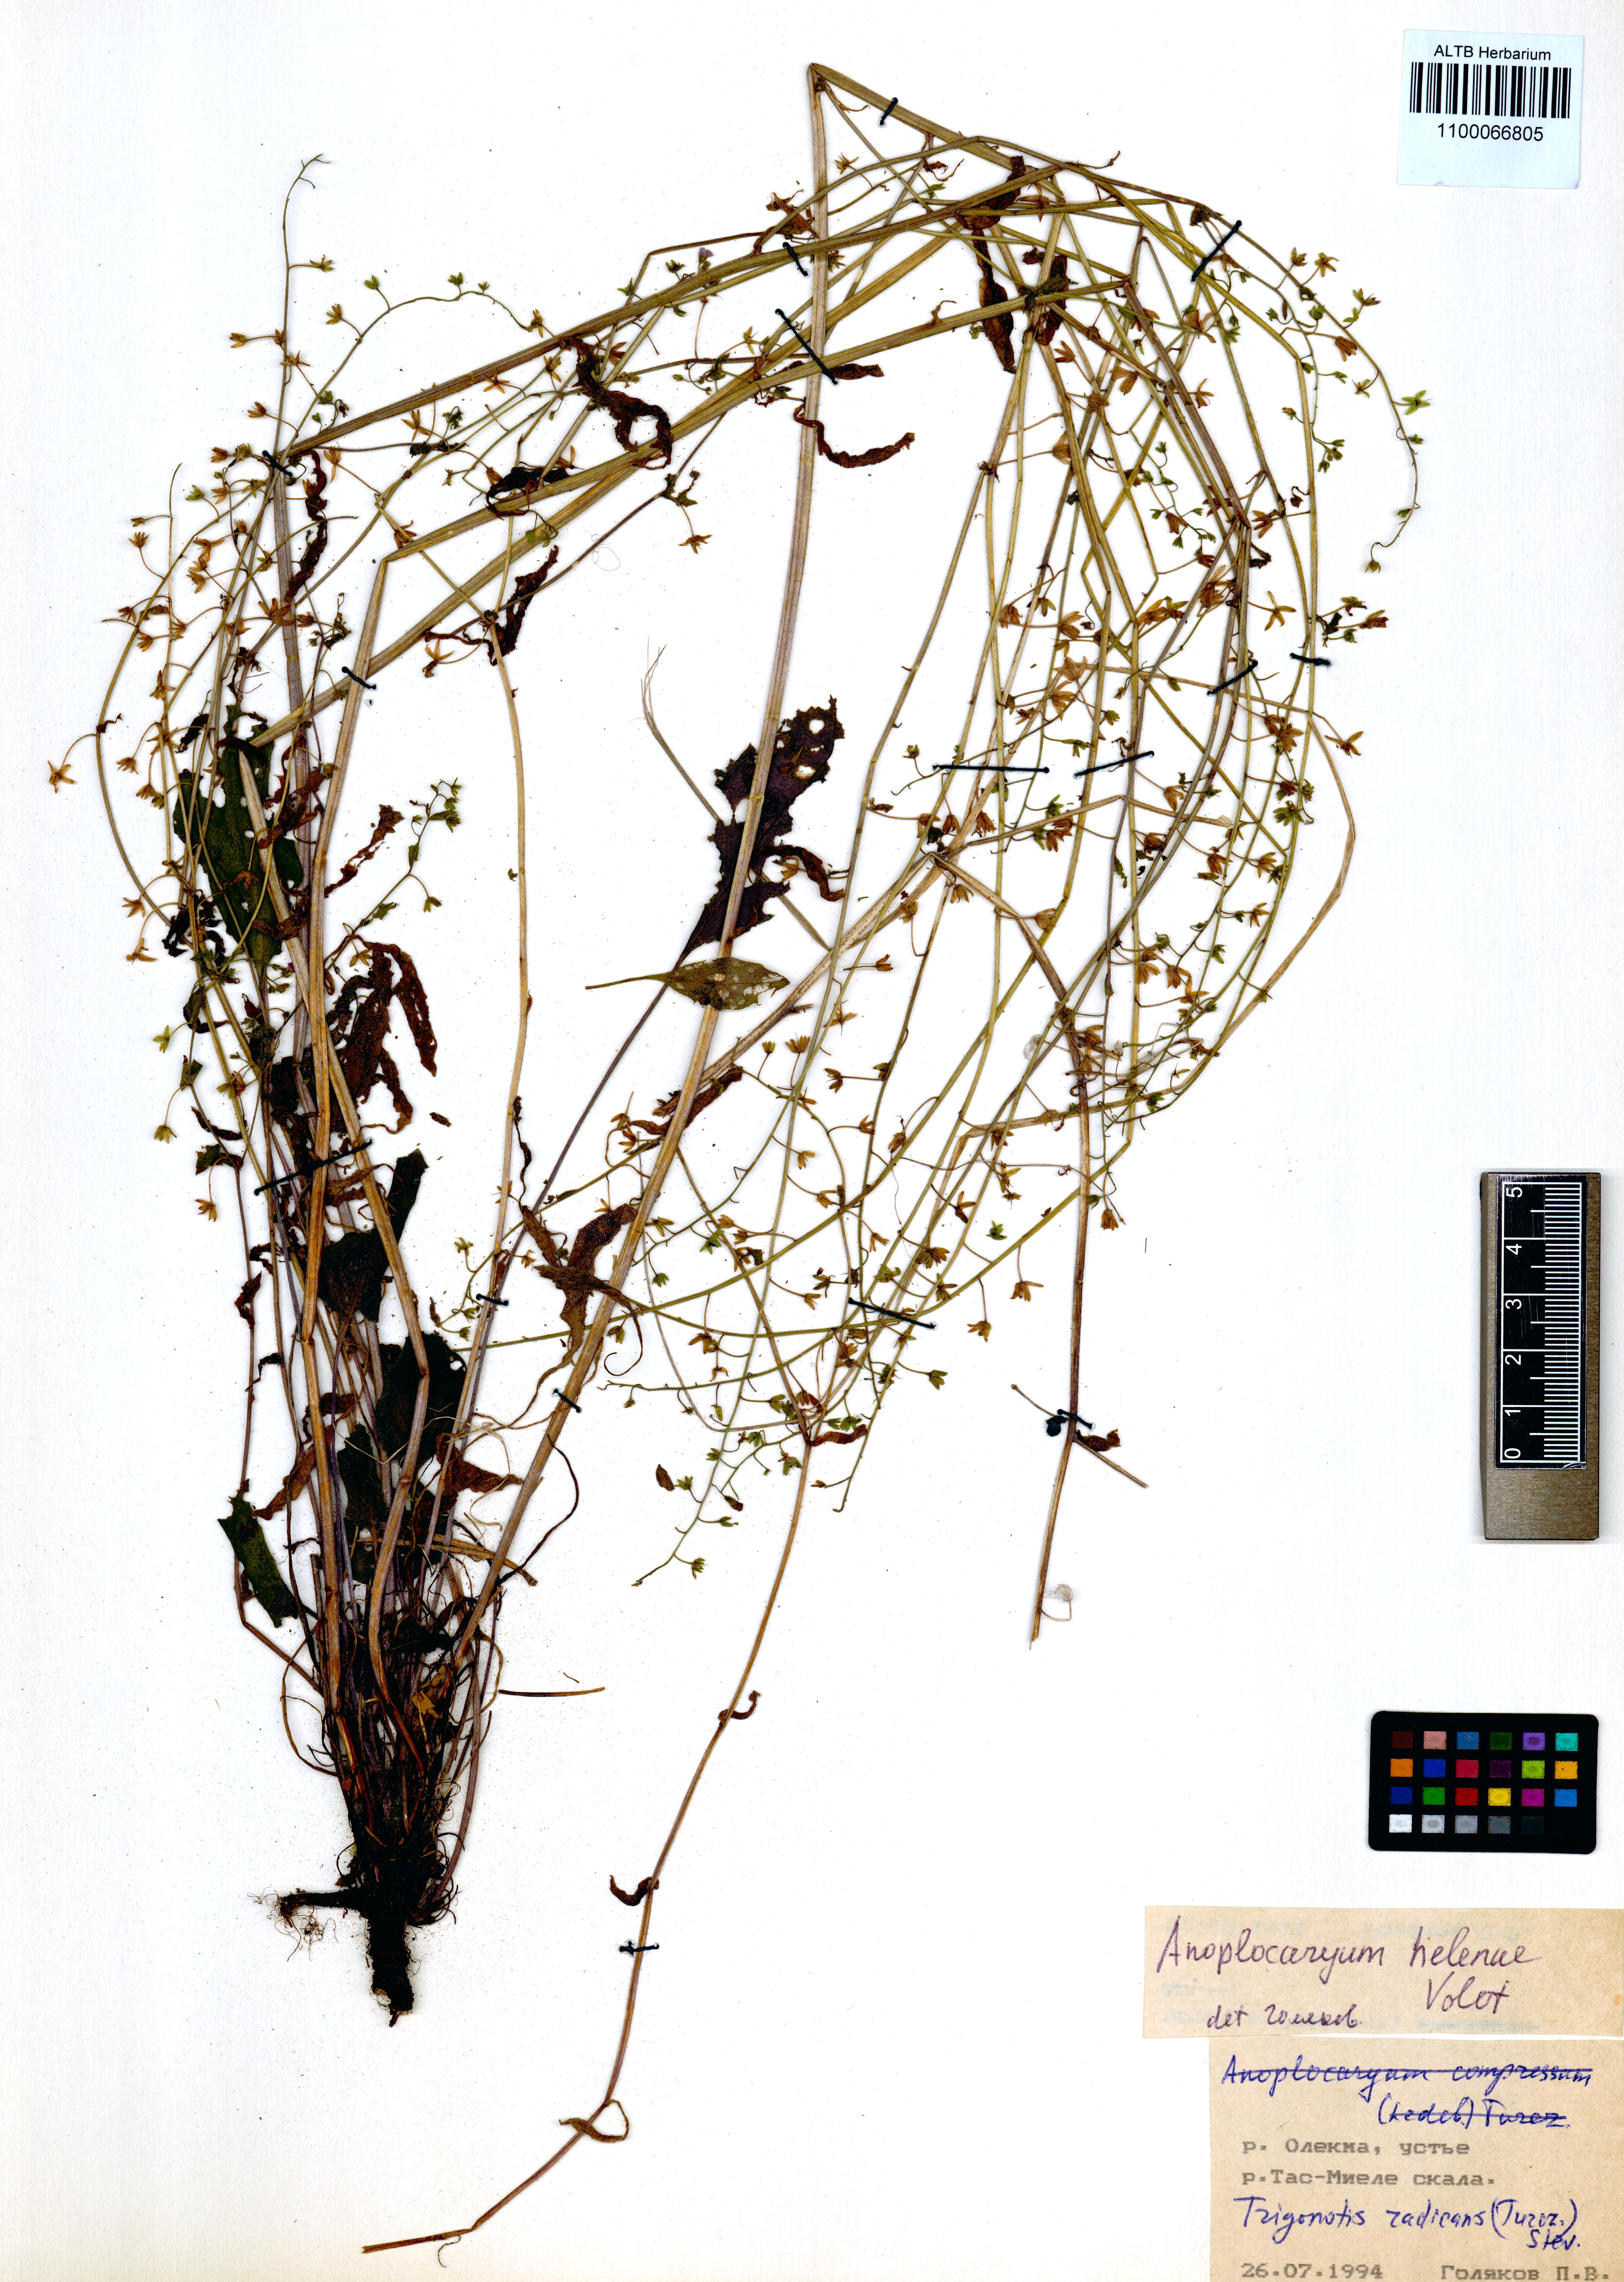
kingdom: Plantae
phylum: Tracheophyta
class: Magnoliopsida
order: Boraginales
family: Boraginaceae
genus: Anoplocaryum
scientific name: Anoplocaryum helenae
